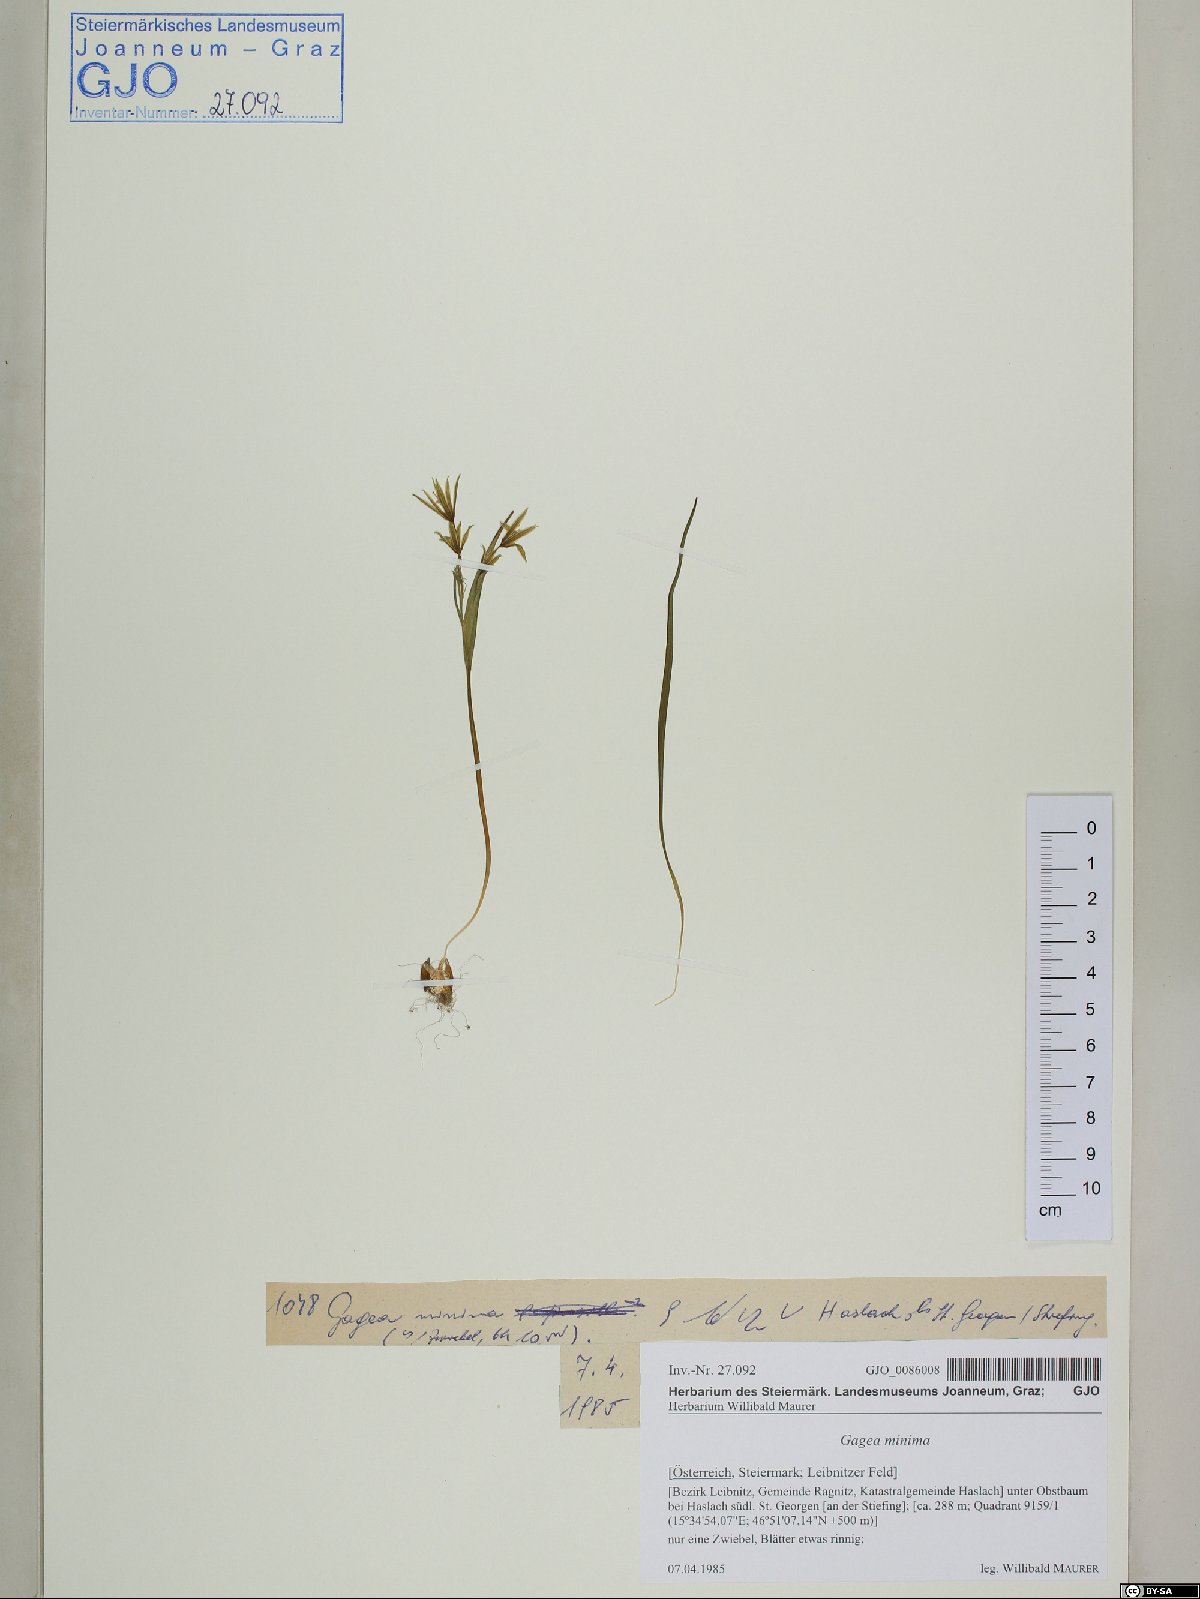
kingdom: Plantae
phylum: Tracheophyta
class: Liliopsida
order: Liliales
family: Liliaceae
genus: Gagea
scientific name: Gagea minima
